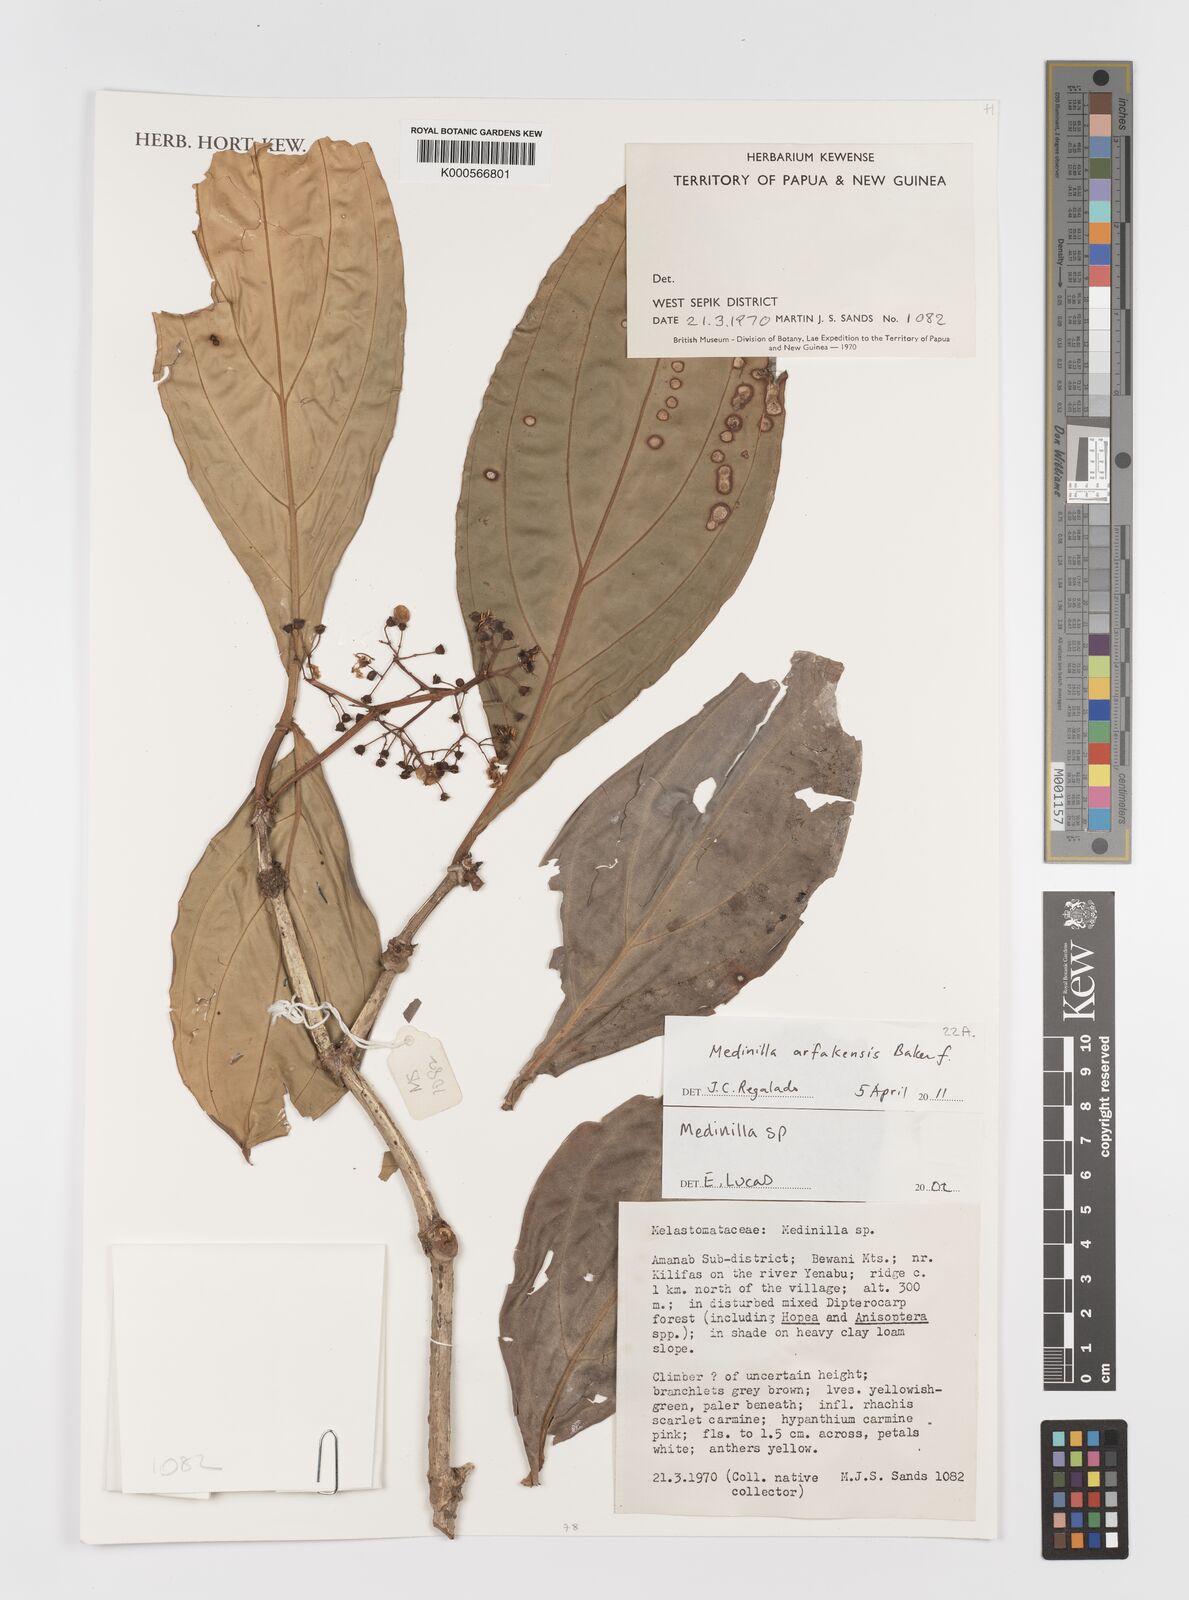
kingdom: Plantae
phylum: Tracheophyta
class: Magnoliopsida
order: Myrtales
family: Melastomataceae
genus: Medinilla
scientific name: Medinilla arfakensis
